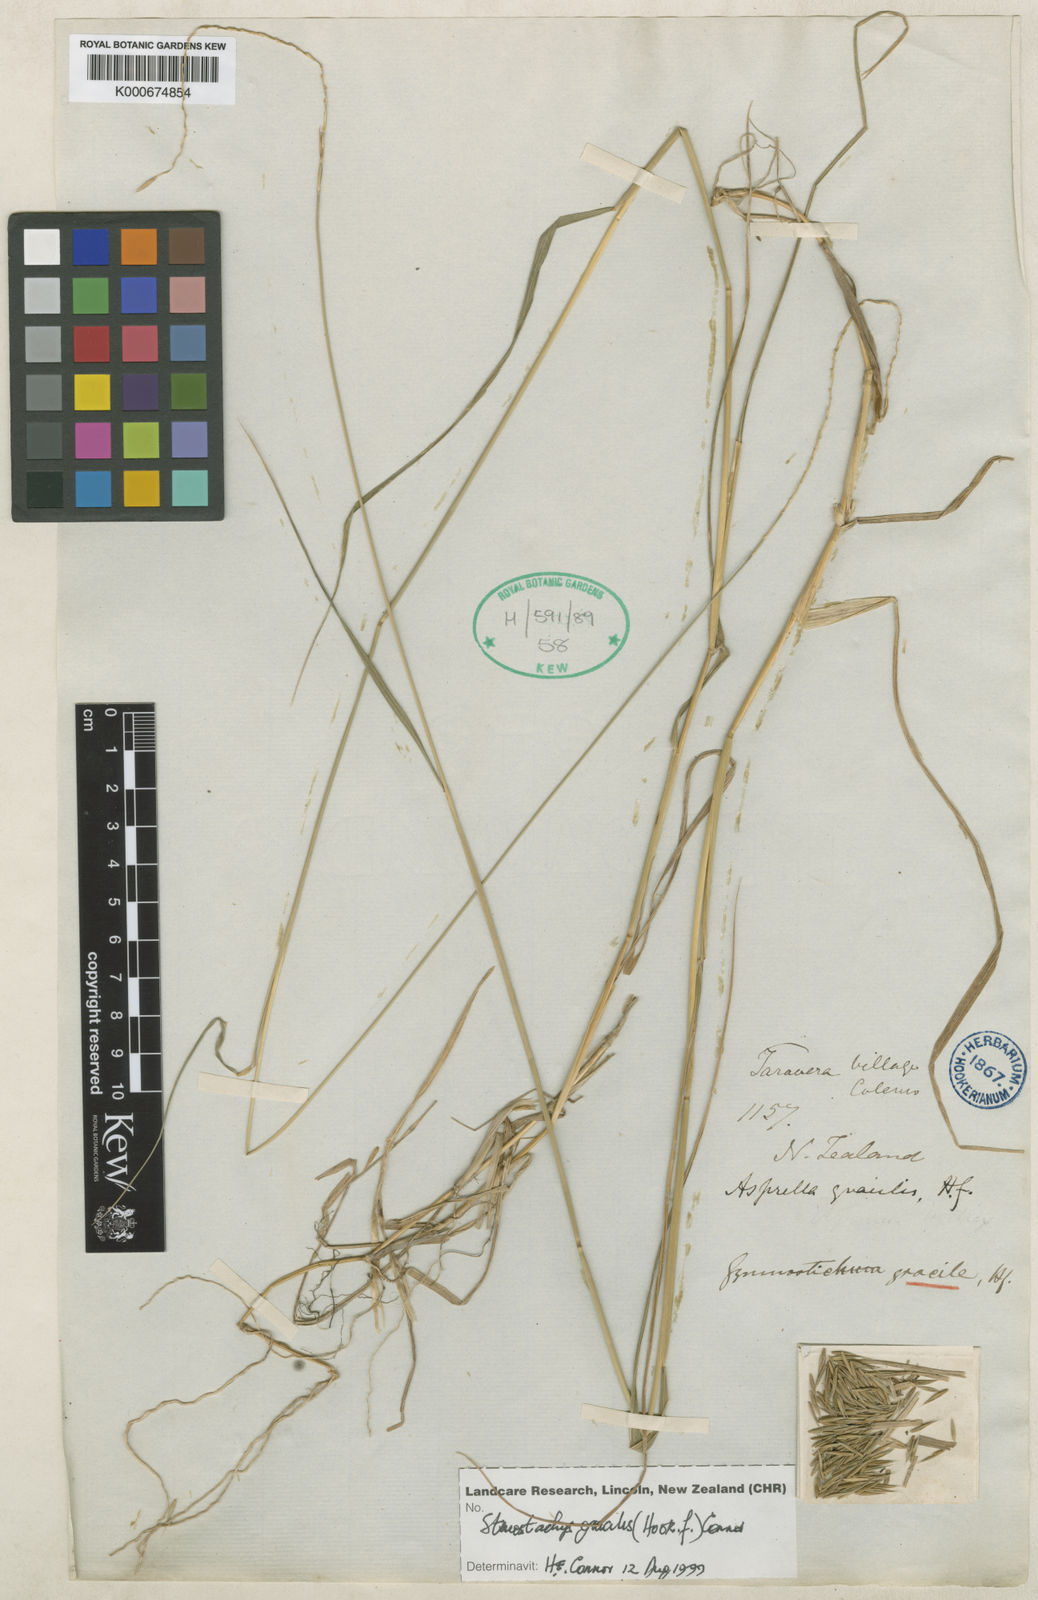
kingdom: Plantae
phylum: Tracheophyta
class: Liliopsida
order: Poales
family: Poaceae
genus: Hystrix
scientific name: Hystrix
